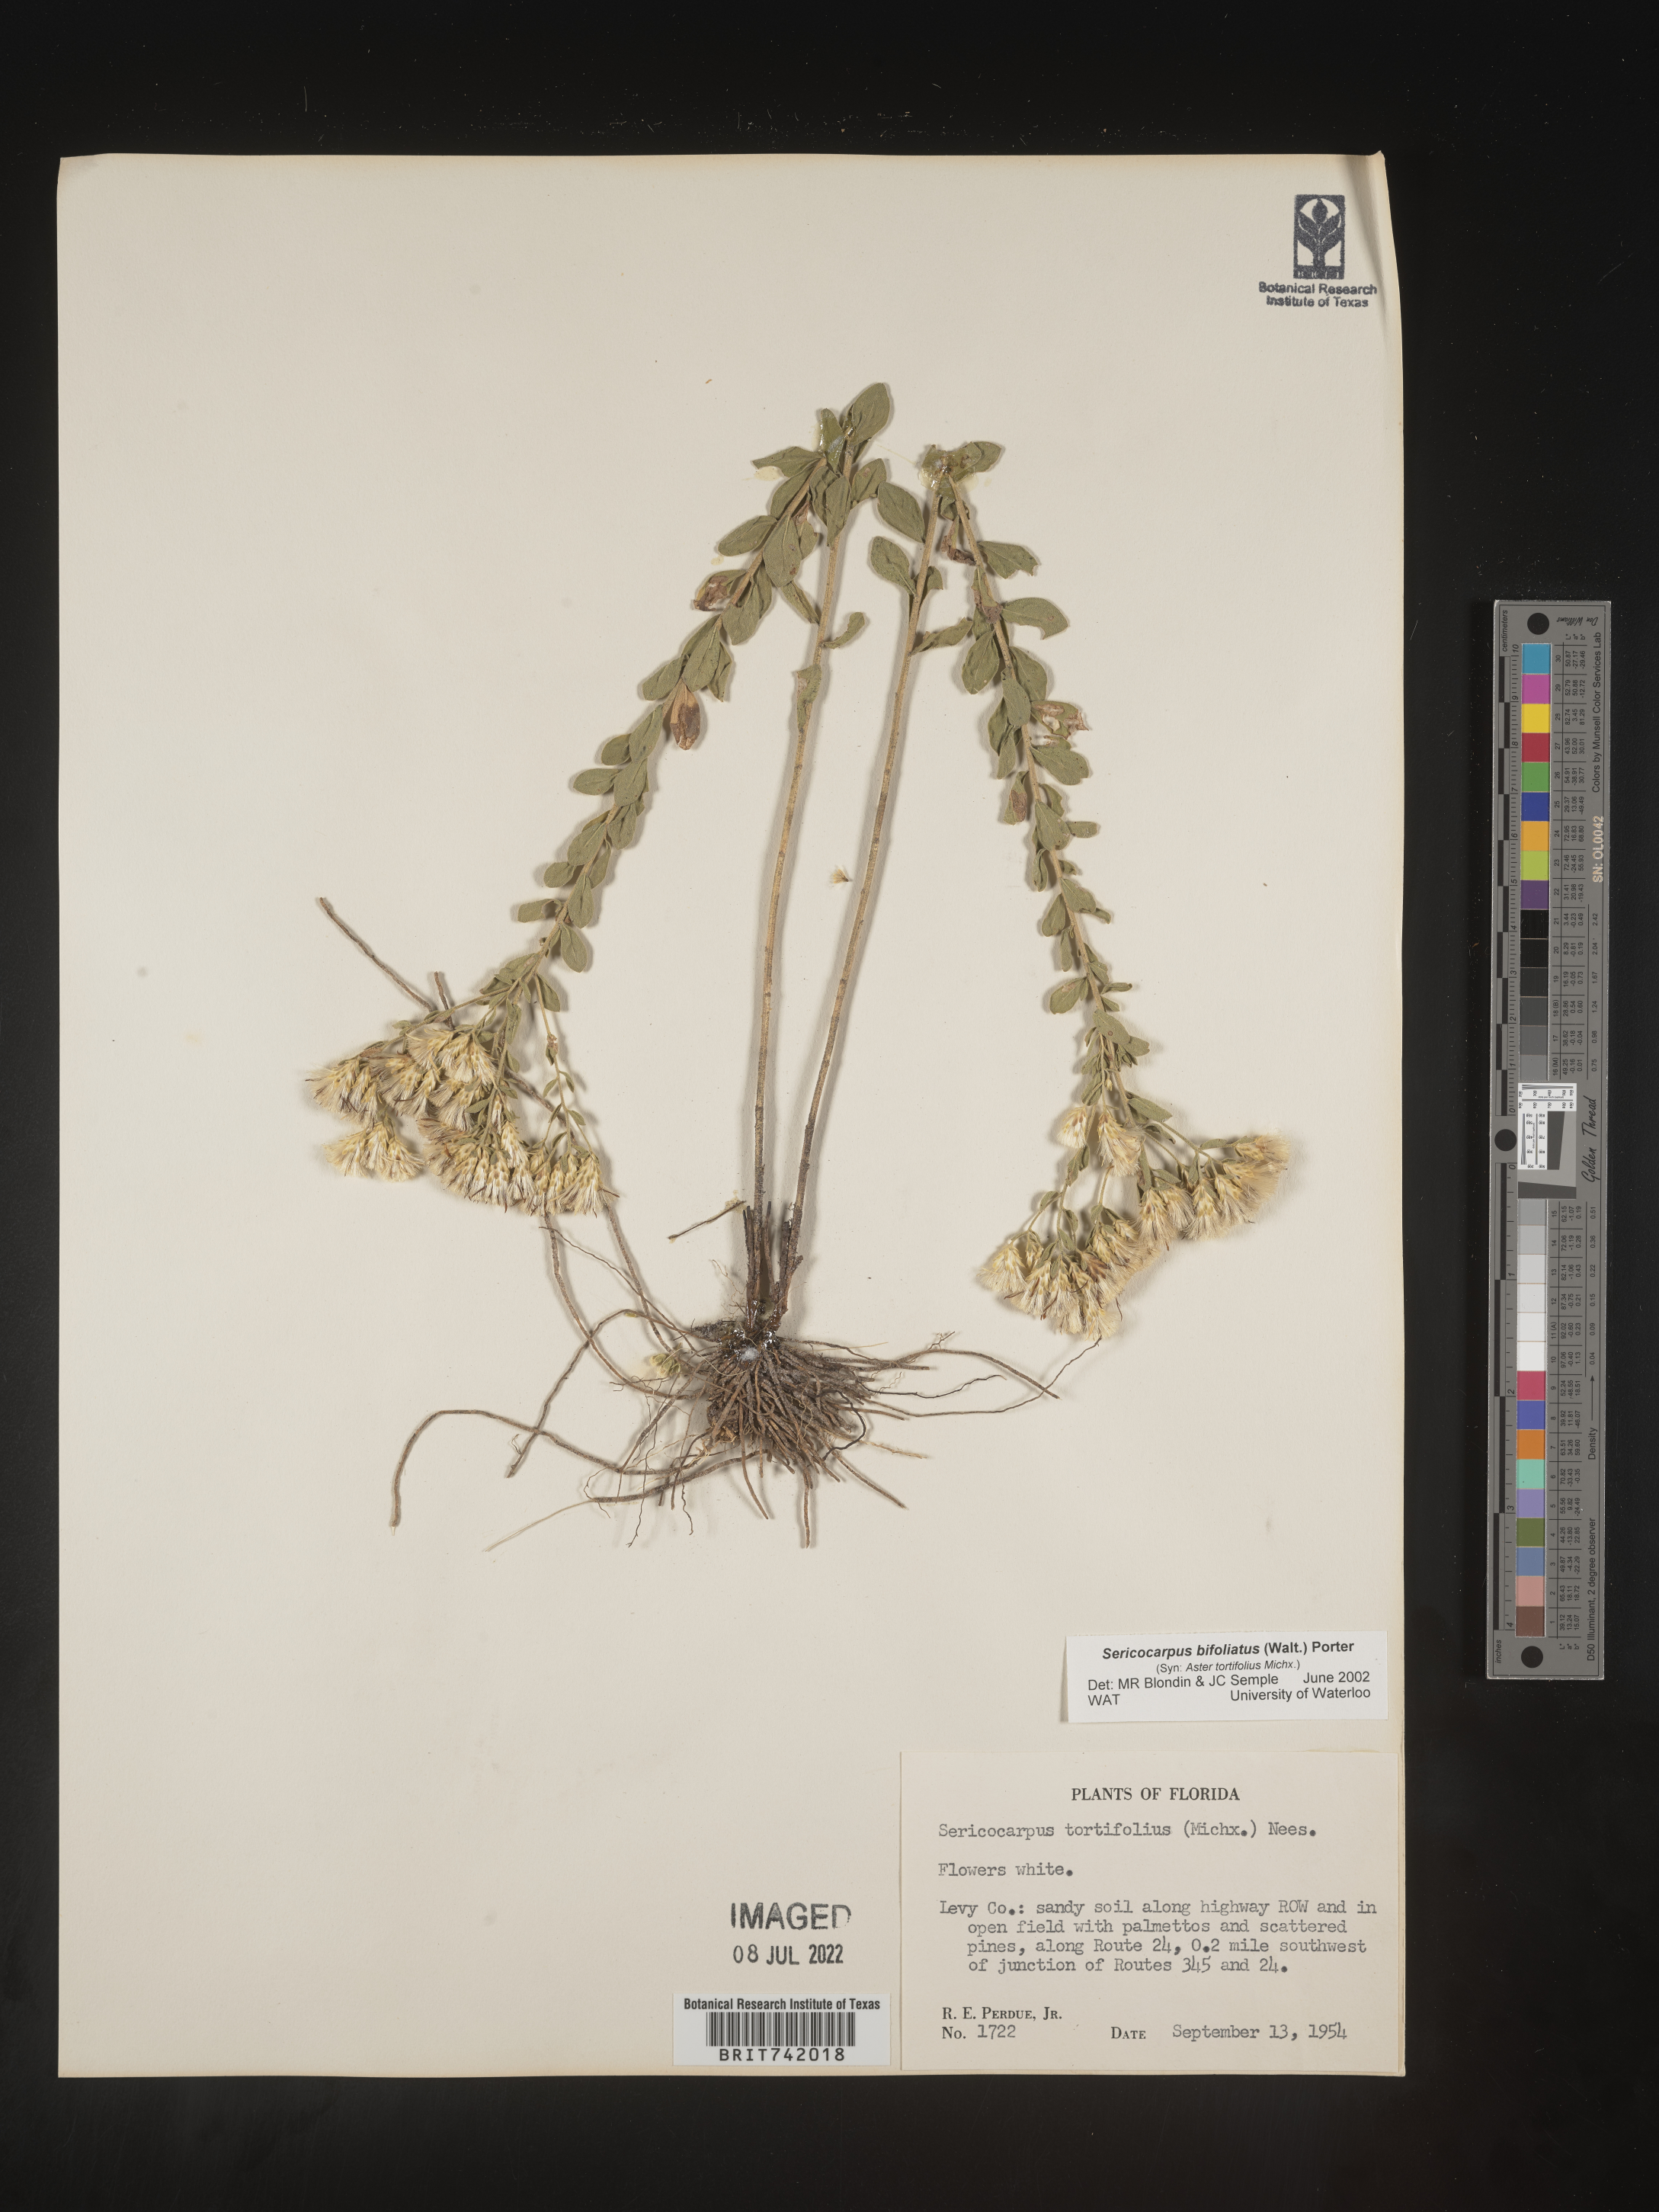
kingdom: Plantae
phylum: Tracheophyta
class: Magnoliopsida
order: Asterales
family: Asteraceae
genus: Sericocarpus
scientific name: Sericocarpus tortifolius
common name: Dixie aster
